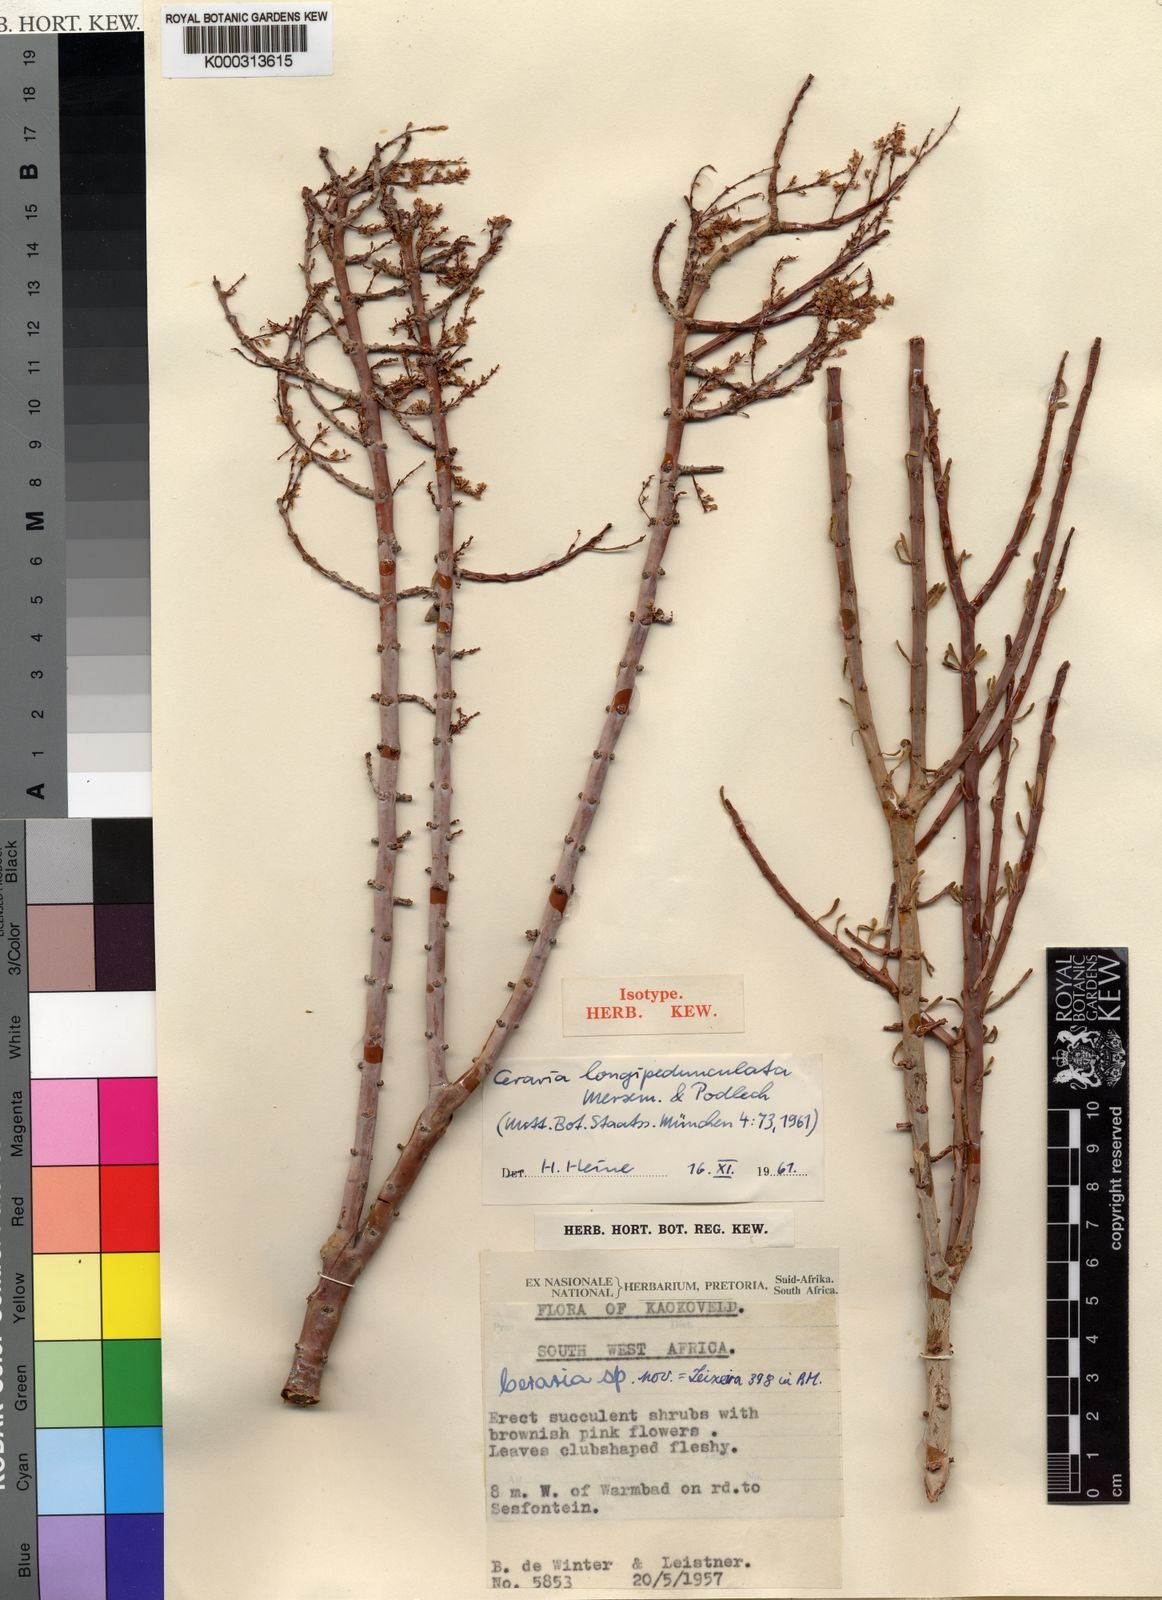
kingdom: Plantae
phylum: Tracheophyta
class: Magnoliopsida
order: Caryophyllales
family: Didiereaceae
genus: Portulacaria
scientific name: Portulacaria longipedunculata
